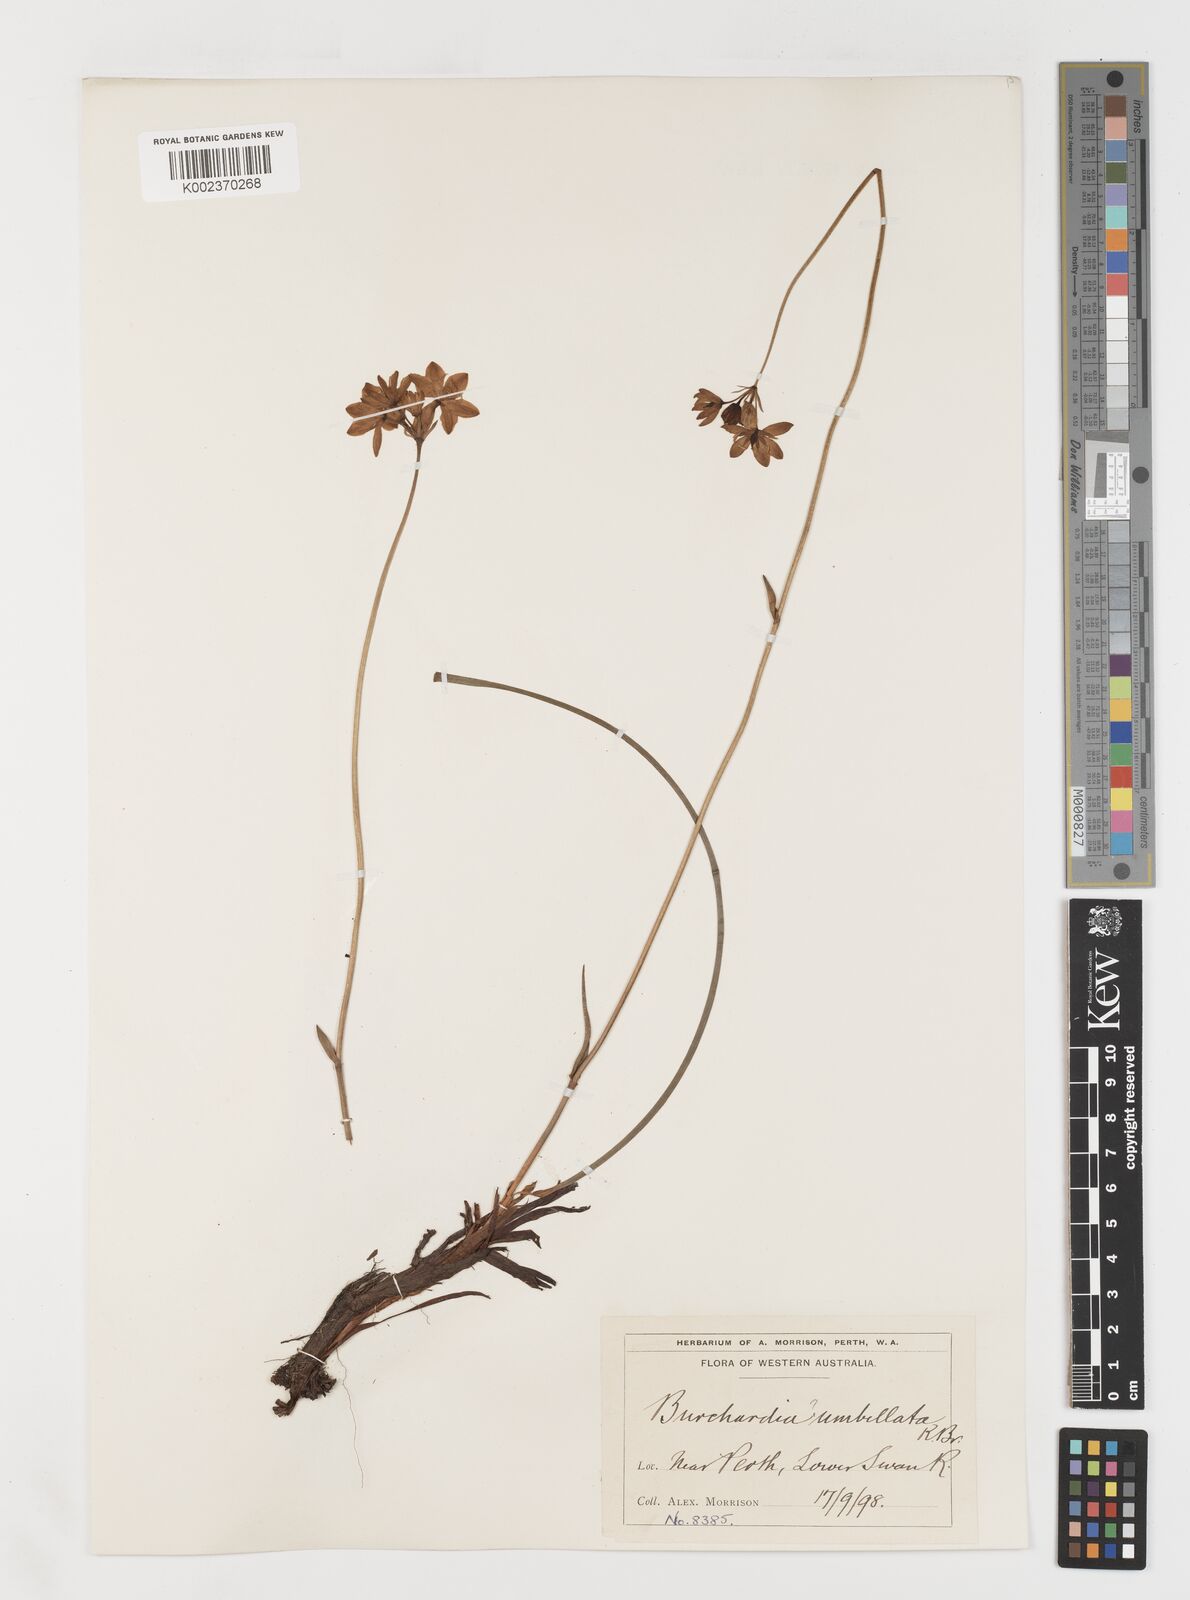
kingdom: Plantae
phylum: Tracheophyta
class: Liliopsida
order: Liliales
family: Colchicaceae
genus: Burchardia
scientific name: Burchardia umbellata
